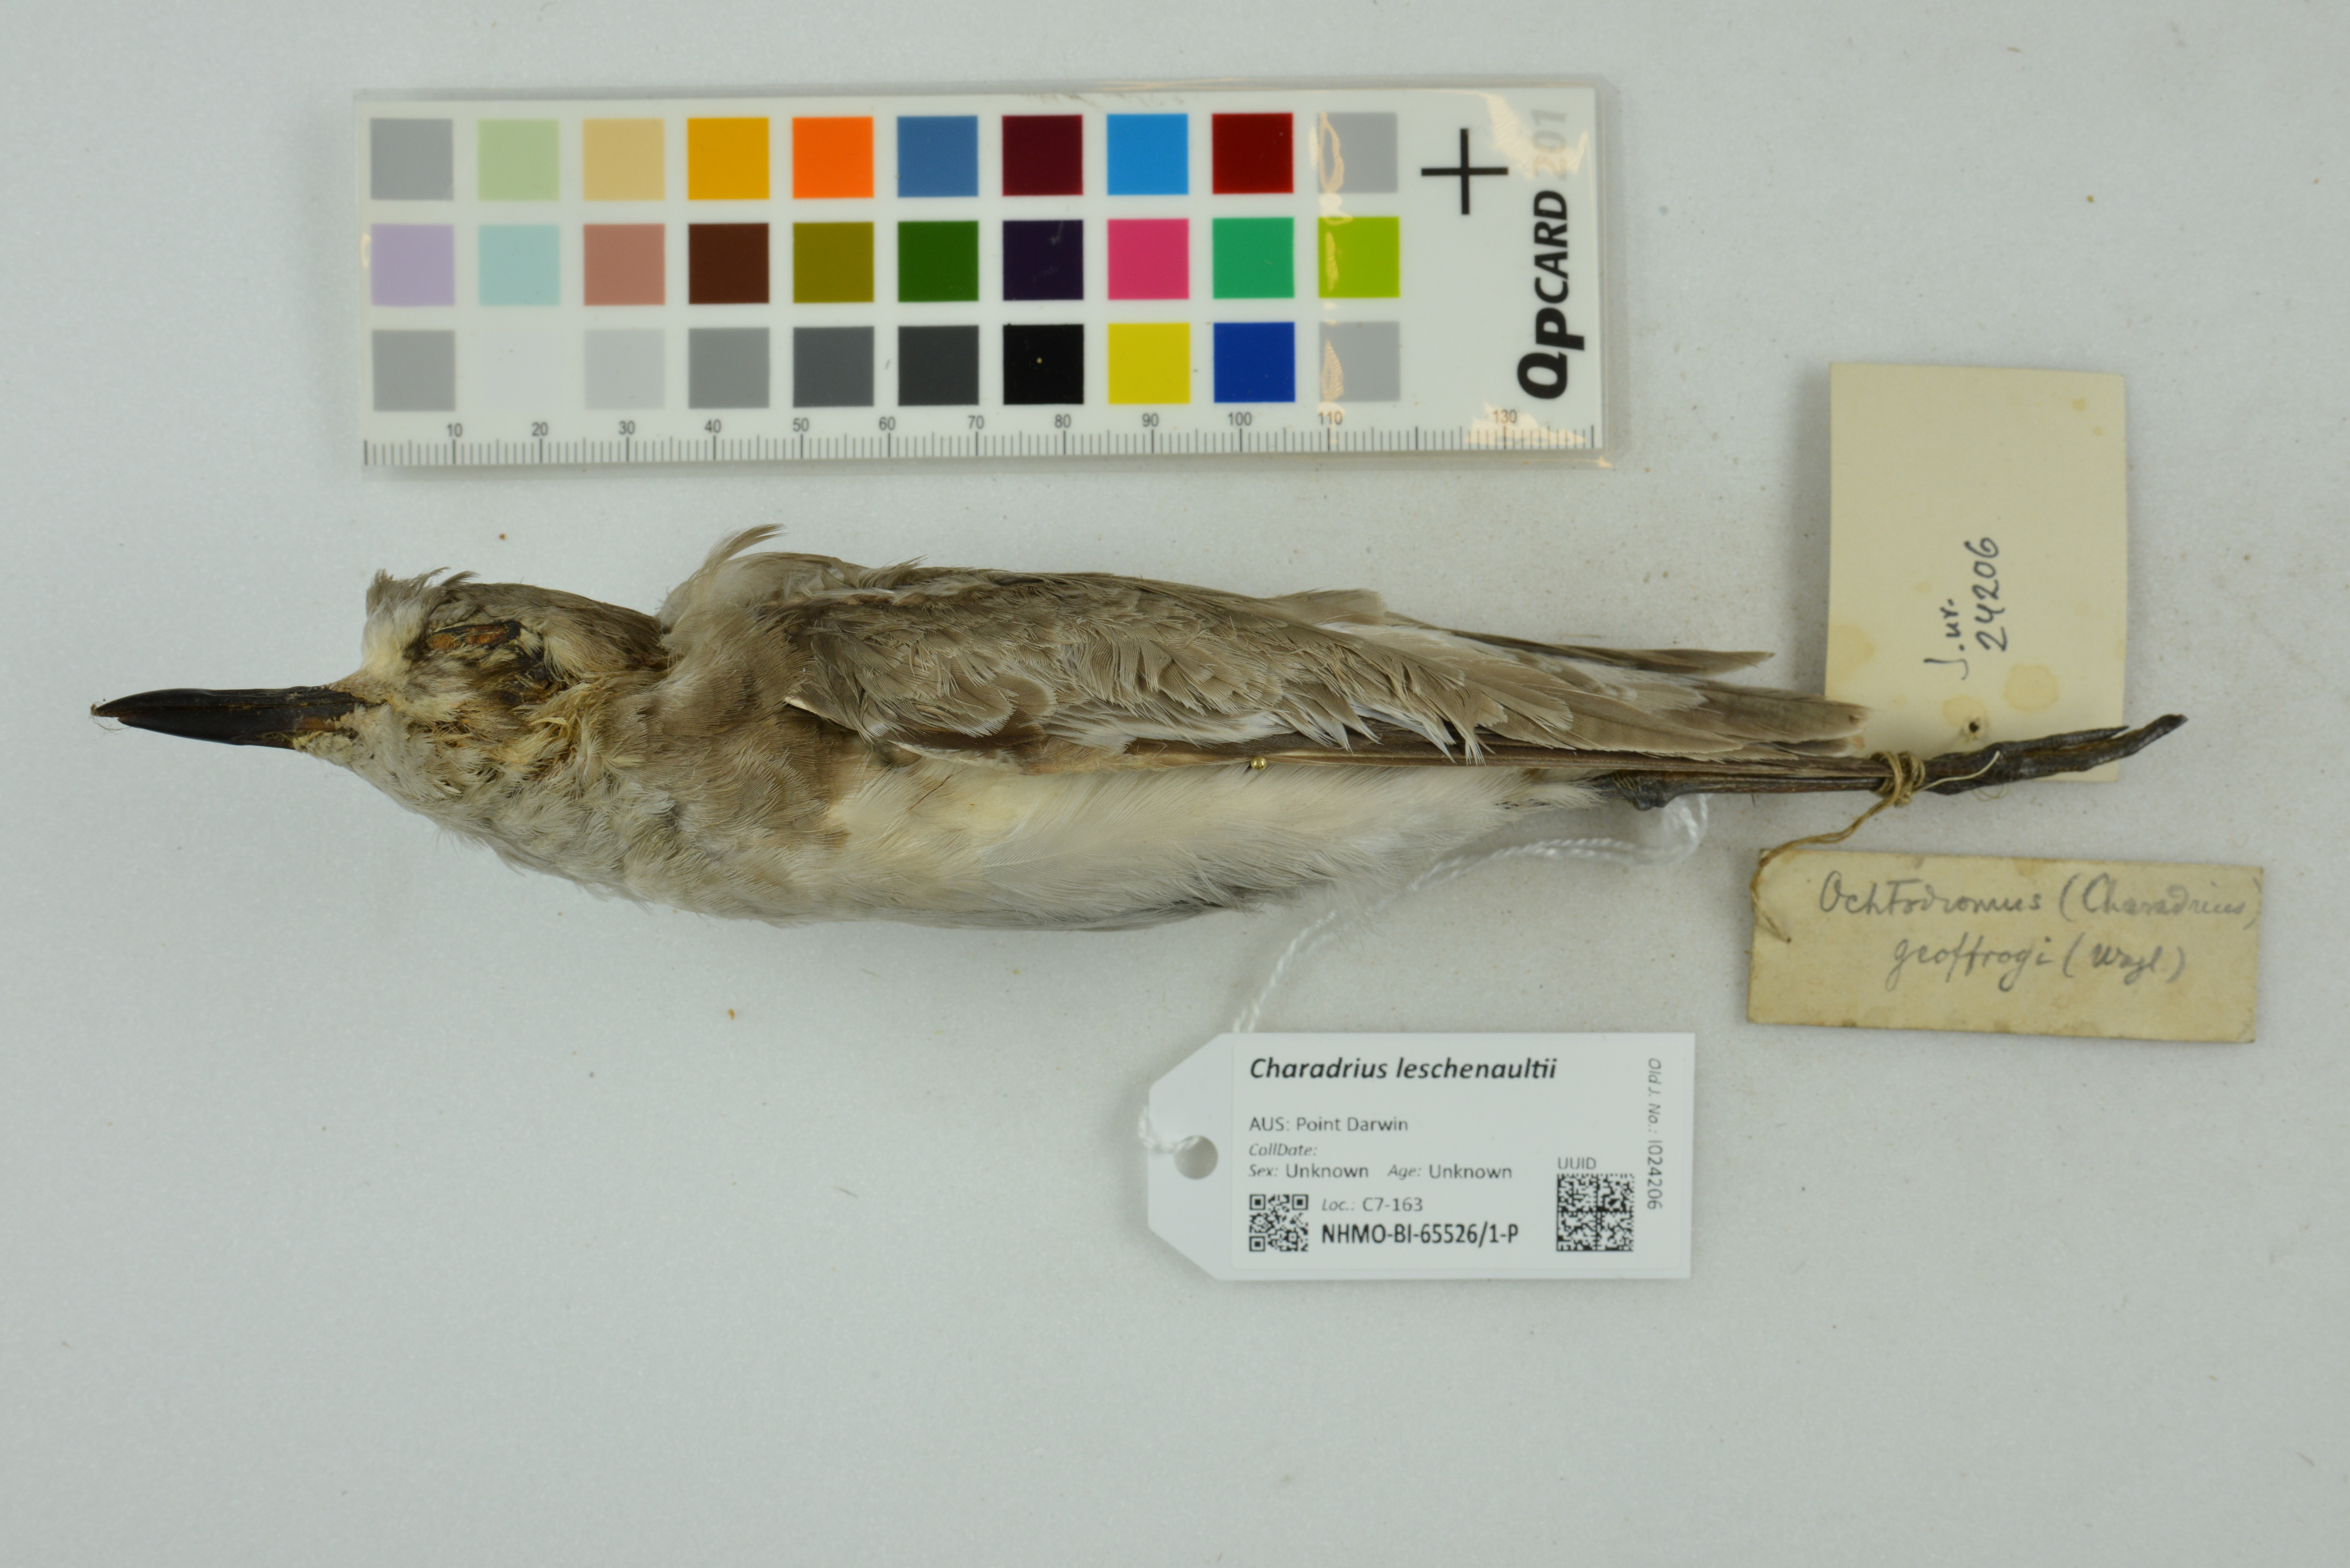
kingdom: Animalia
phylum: Chordata
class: Aves
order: Charadriiformes
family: Charadriidae
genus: Charadrius
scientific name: Charadrius leschenaultii
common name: Greater sand plover
